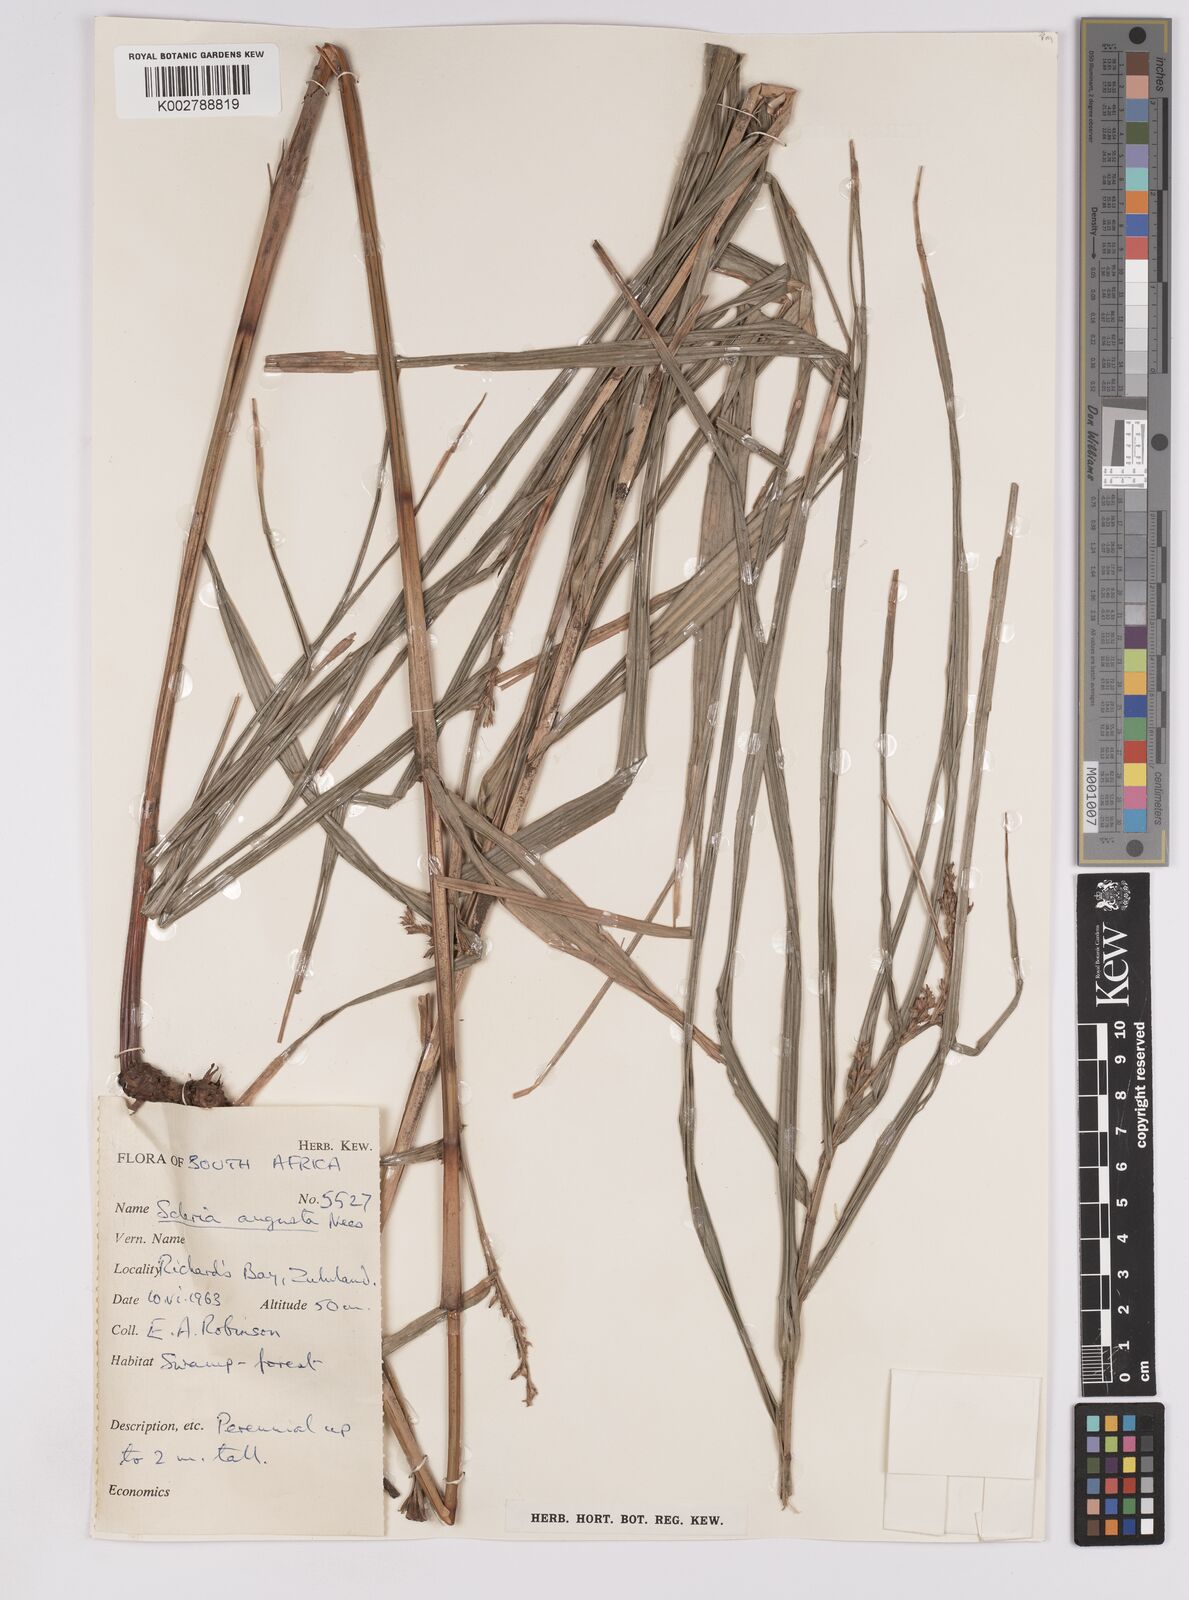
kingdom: Plantae
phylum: Tracheophyta
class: Liliopsida
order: Poales
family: Cyperaceae
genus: Scleria
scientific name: Scleria angusta
